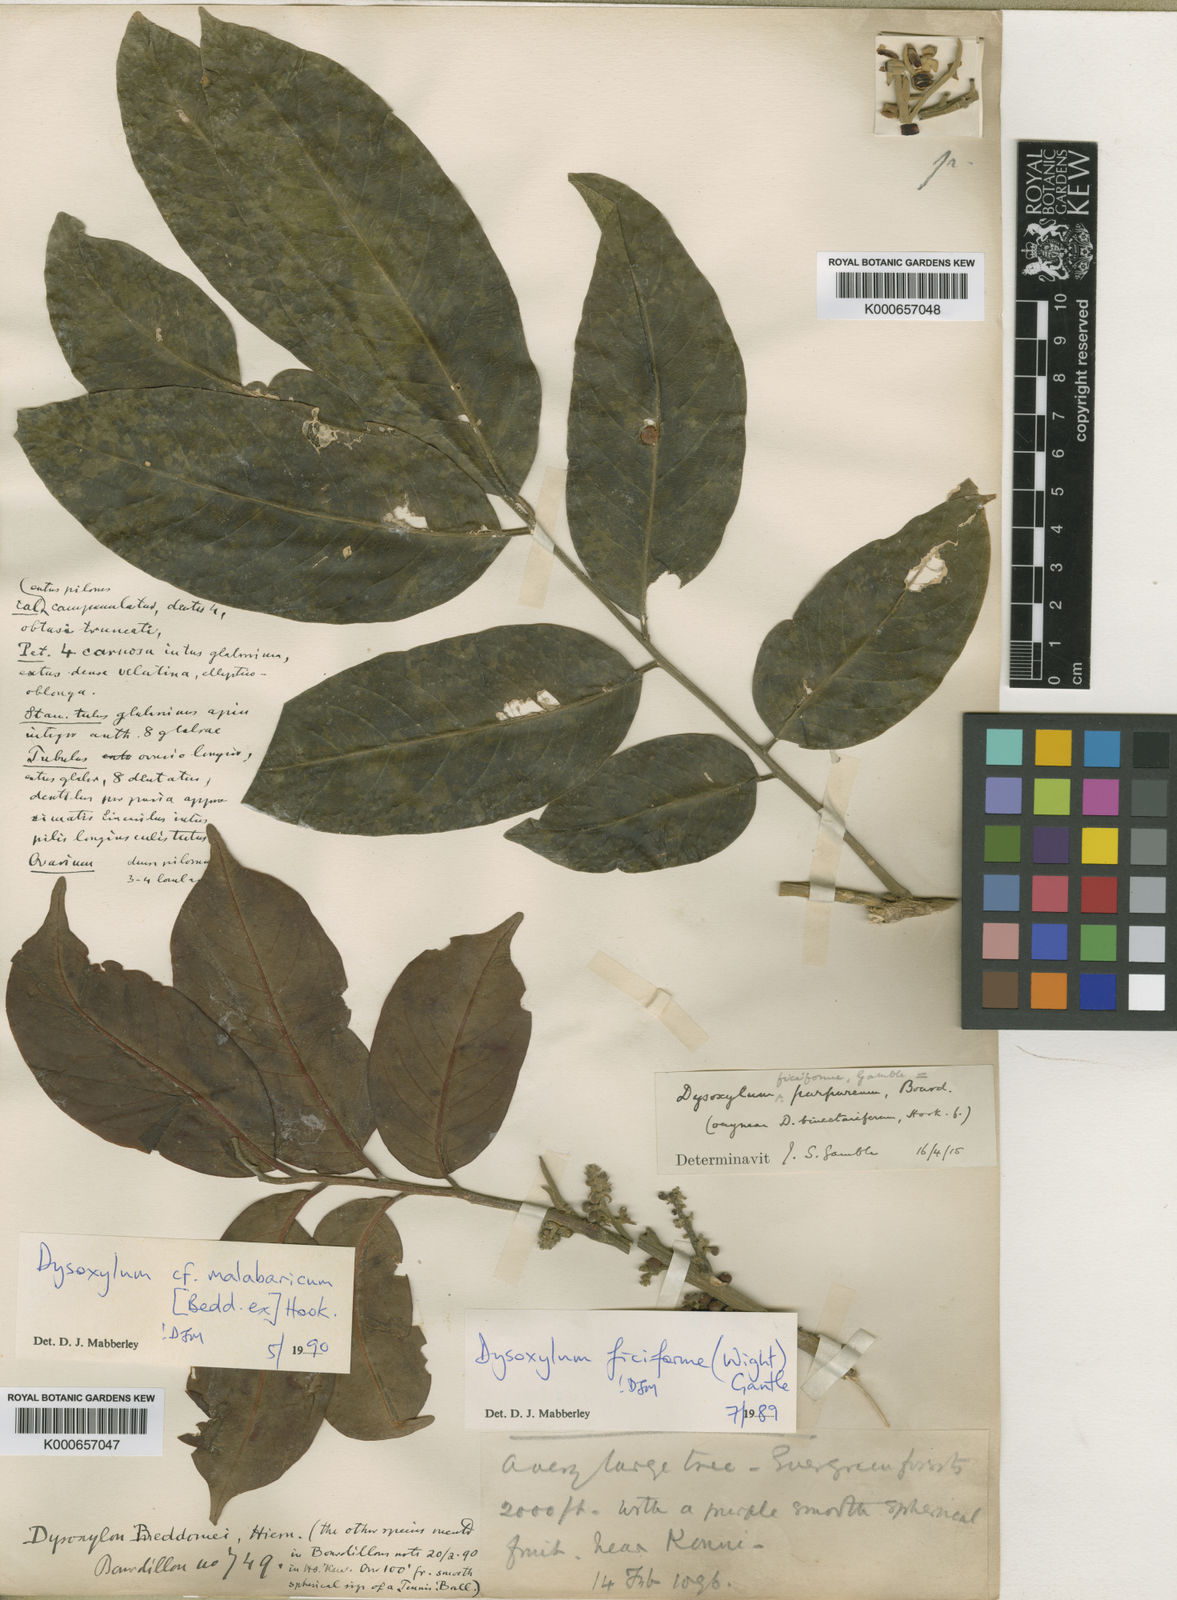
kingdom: Plantae
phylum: Tracheophyta
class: Magnoliopsida
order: Sapindales
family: Meliaceae
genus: Dysoxylum
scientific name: Dysoxylum malabaricum
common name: White cedar
